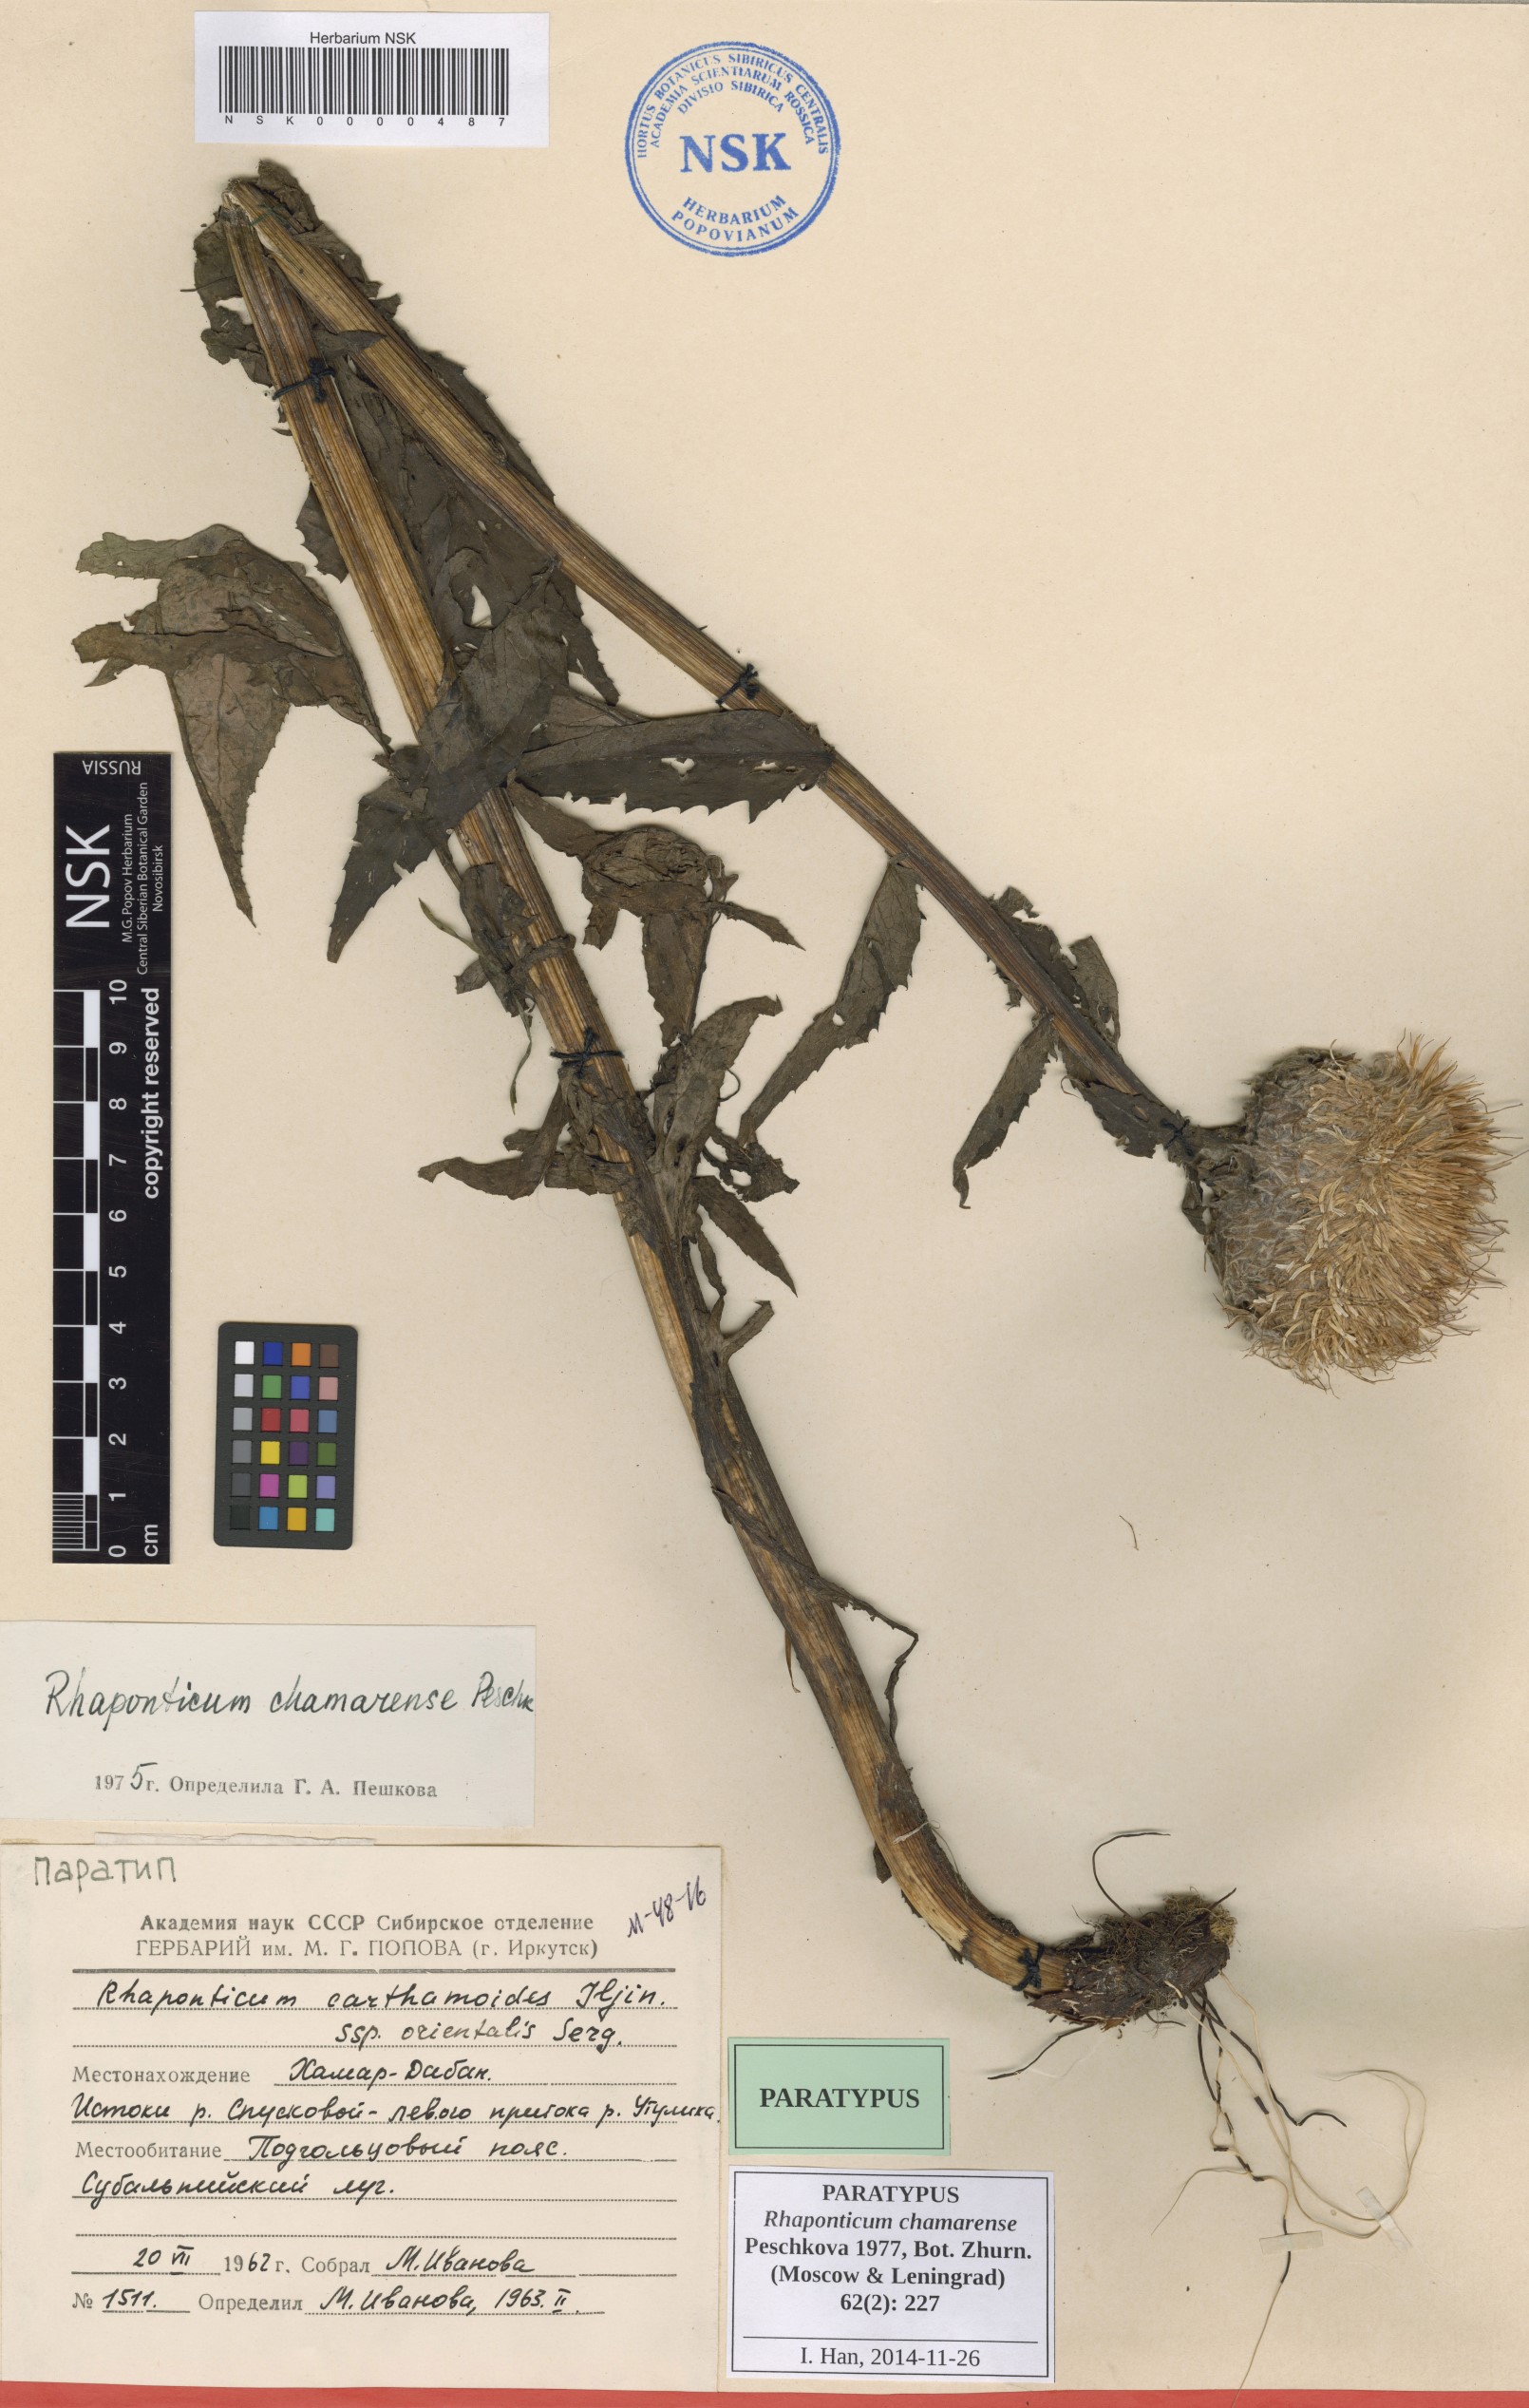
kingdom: Plantae
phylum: Tracheophyta
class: Magnoliopsida
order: Asterales
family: Asteraceae
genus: Leuzea
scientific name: Leuzea carthamoides
